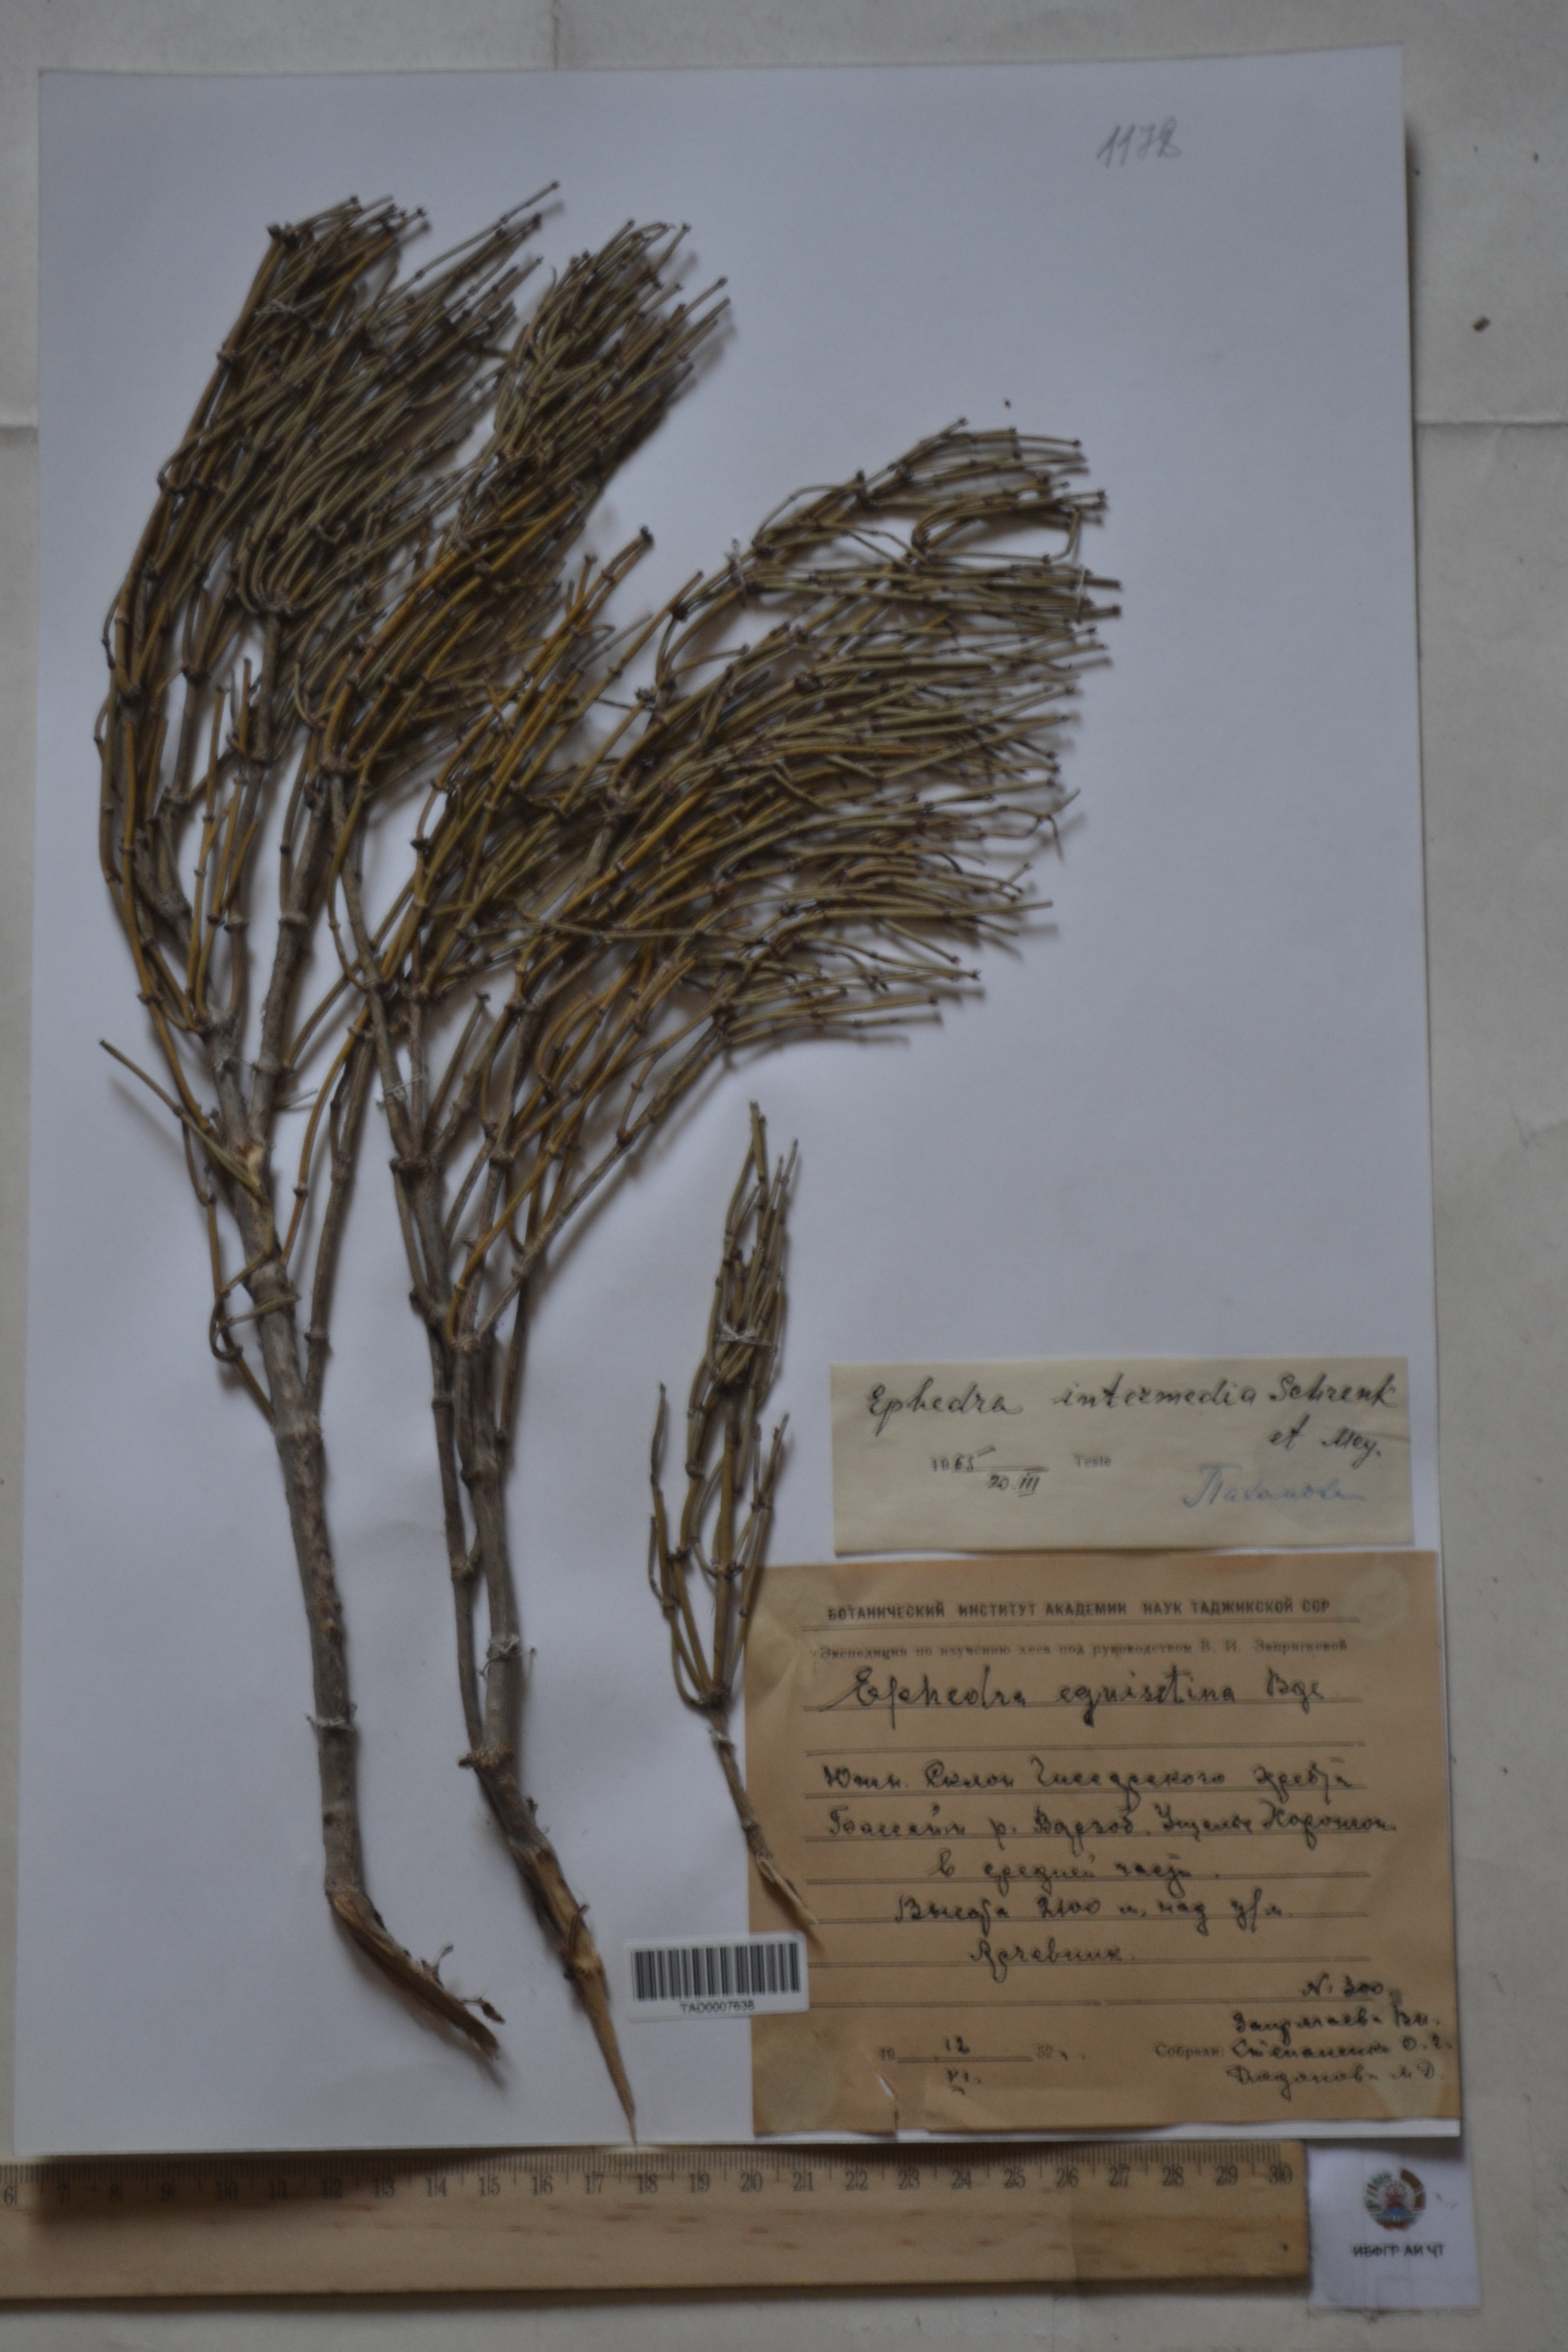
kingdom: Plantae
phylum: Tracheophyta
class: Gnetopsida
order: Ephedrales
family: Ephedraceae
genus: Ephedra
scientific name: Ephedra equisetina
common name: Mongolian ephedra
